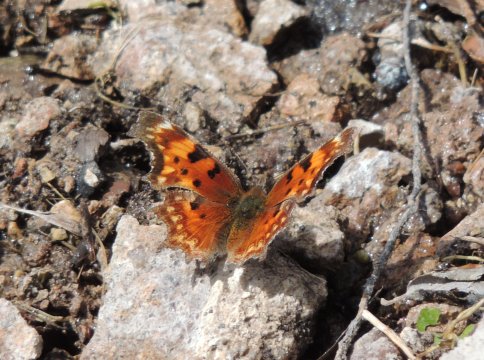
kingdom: Animalia
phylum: Arthropoda
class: Insecta
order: Lepidoptera
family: Nymphalidae
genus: Polygonia
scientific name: Polygonia gracilis
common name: Hoary Comma
